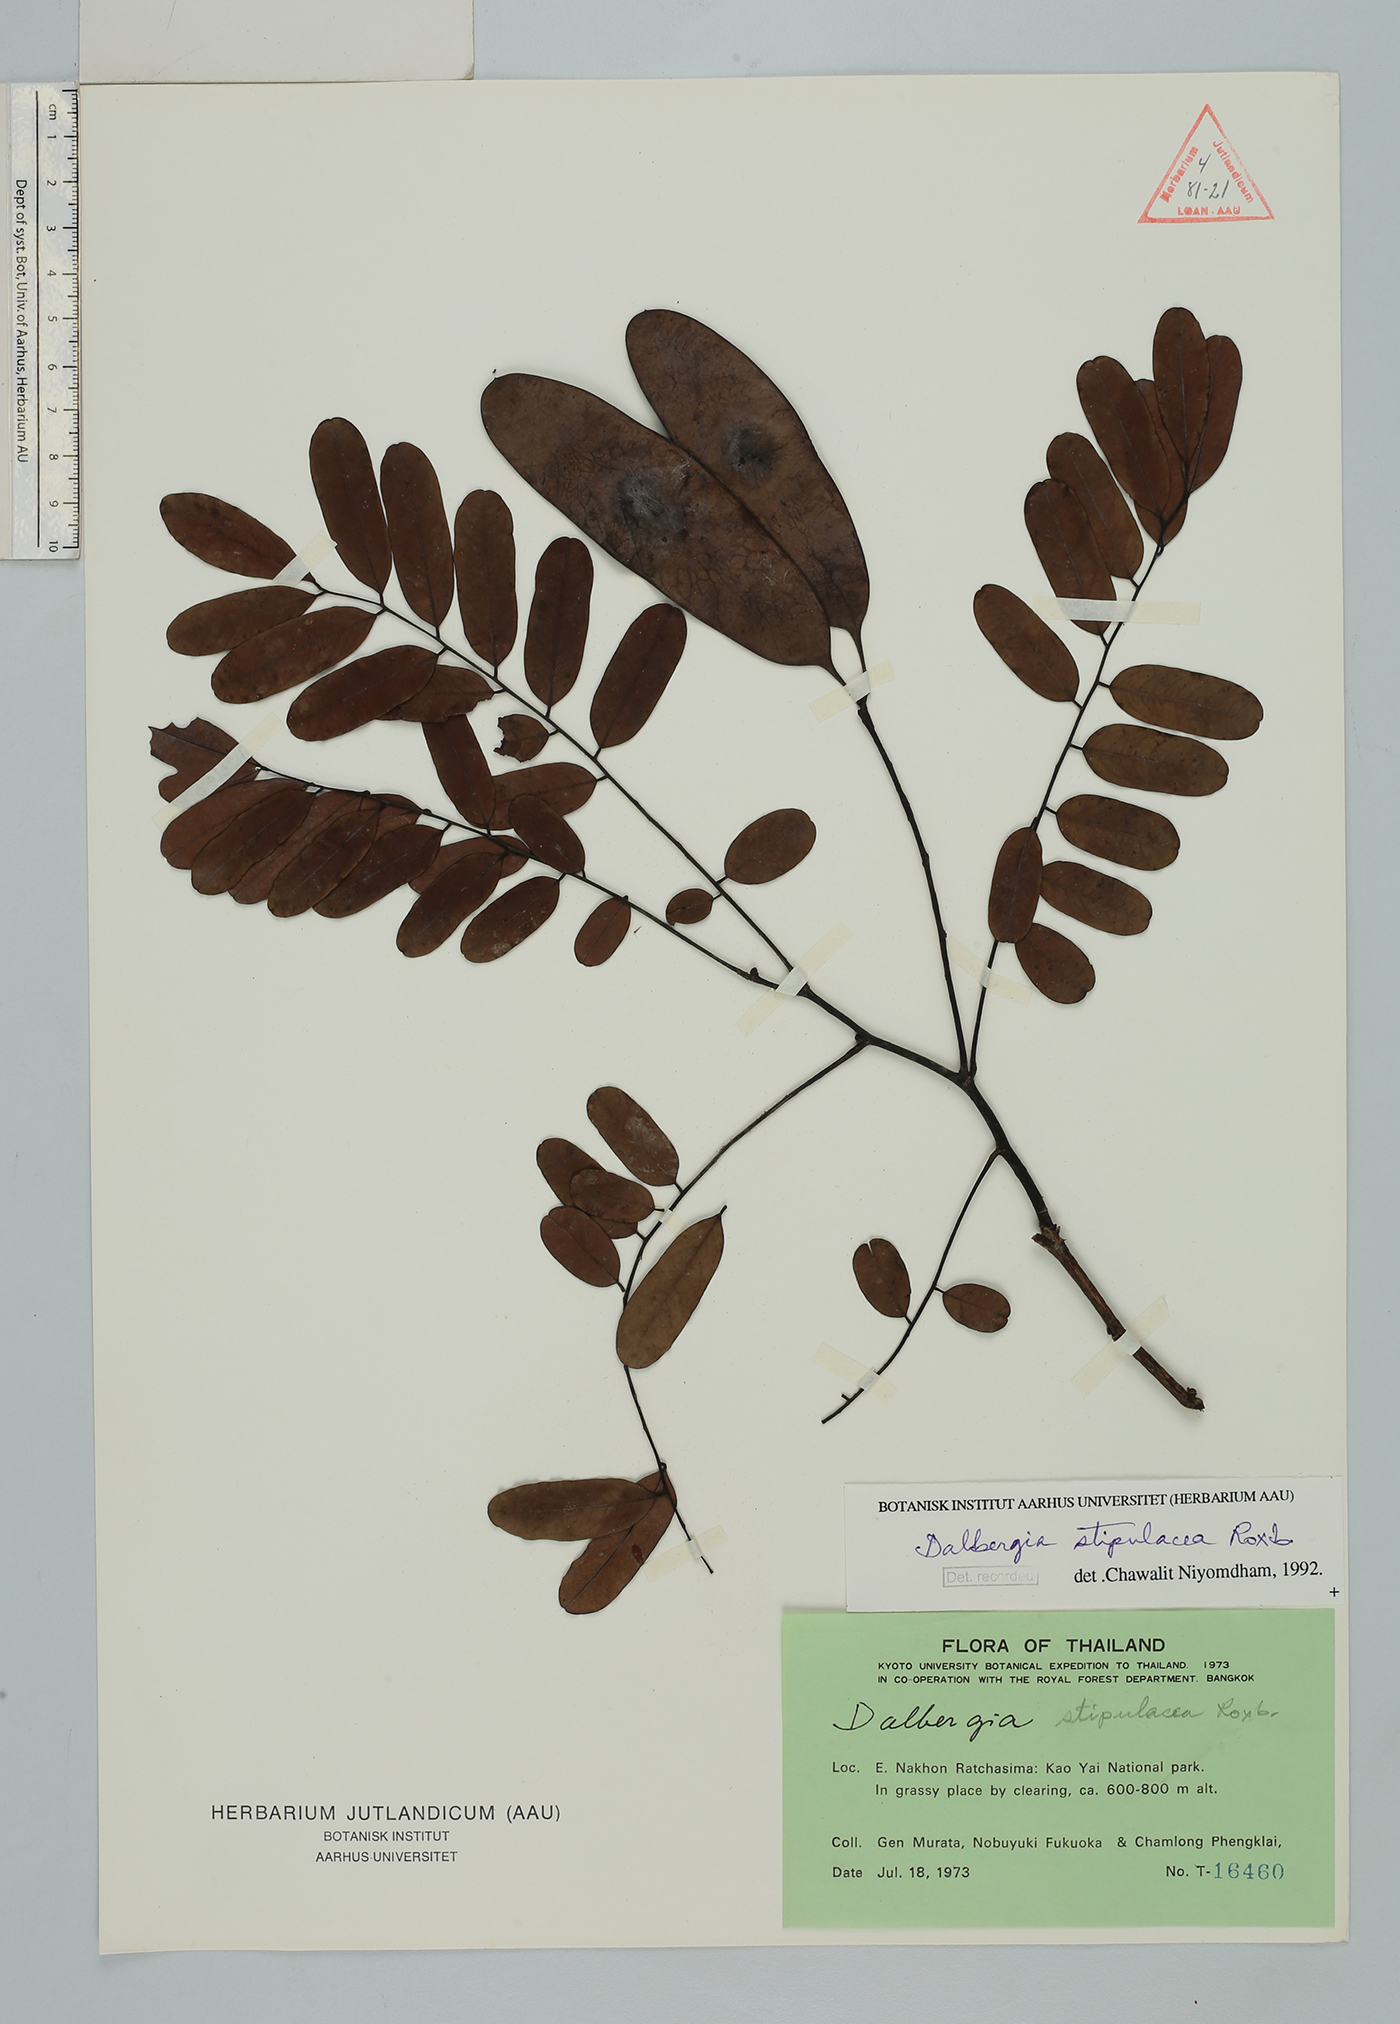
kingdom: Plantae
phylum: Tracheophyta
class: Magnoliopsida
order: Fabales
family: Fabaceae
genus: Dalbergia
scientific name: Dalbergia stipulacea
